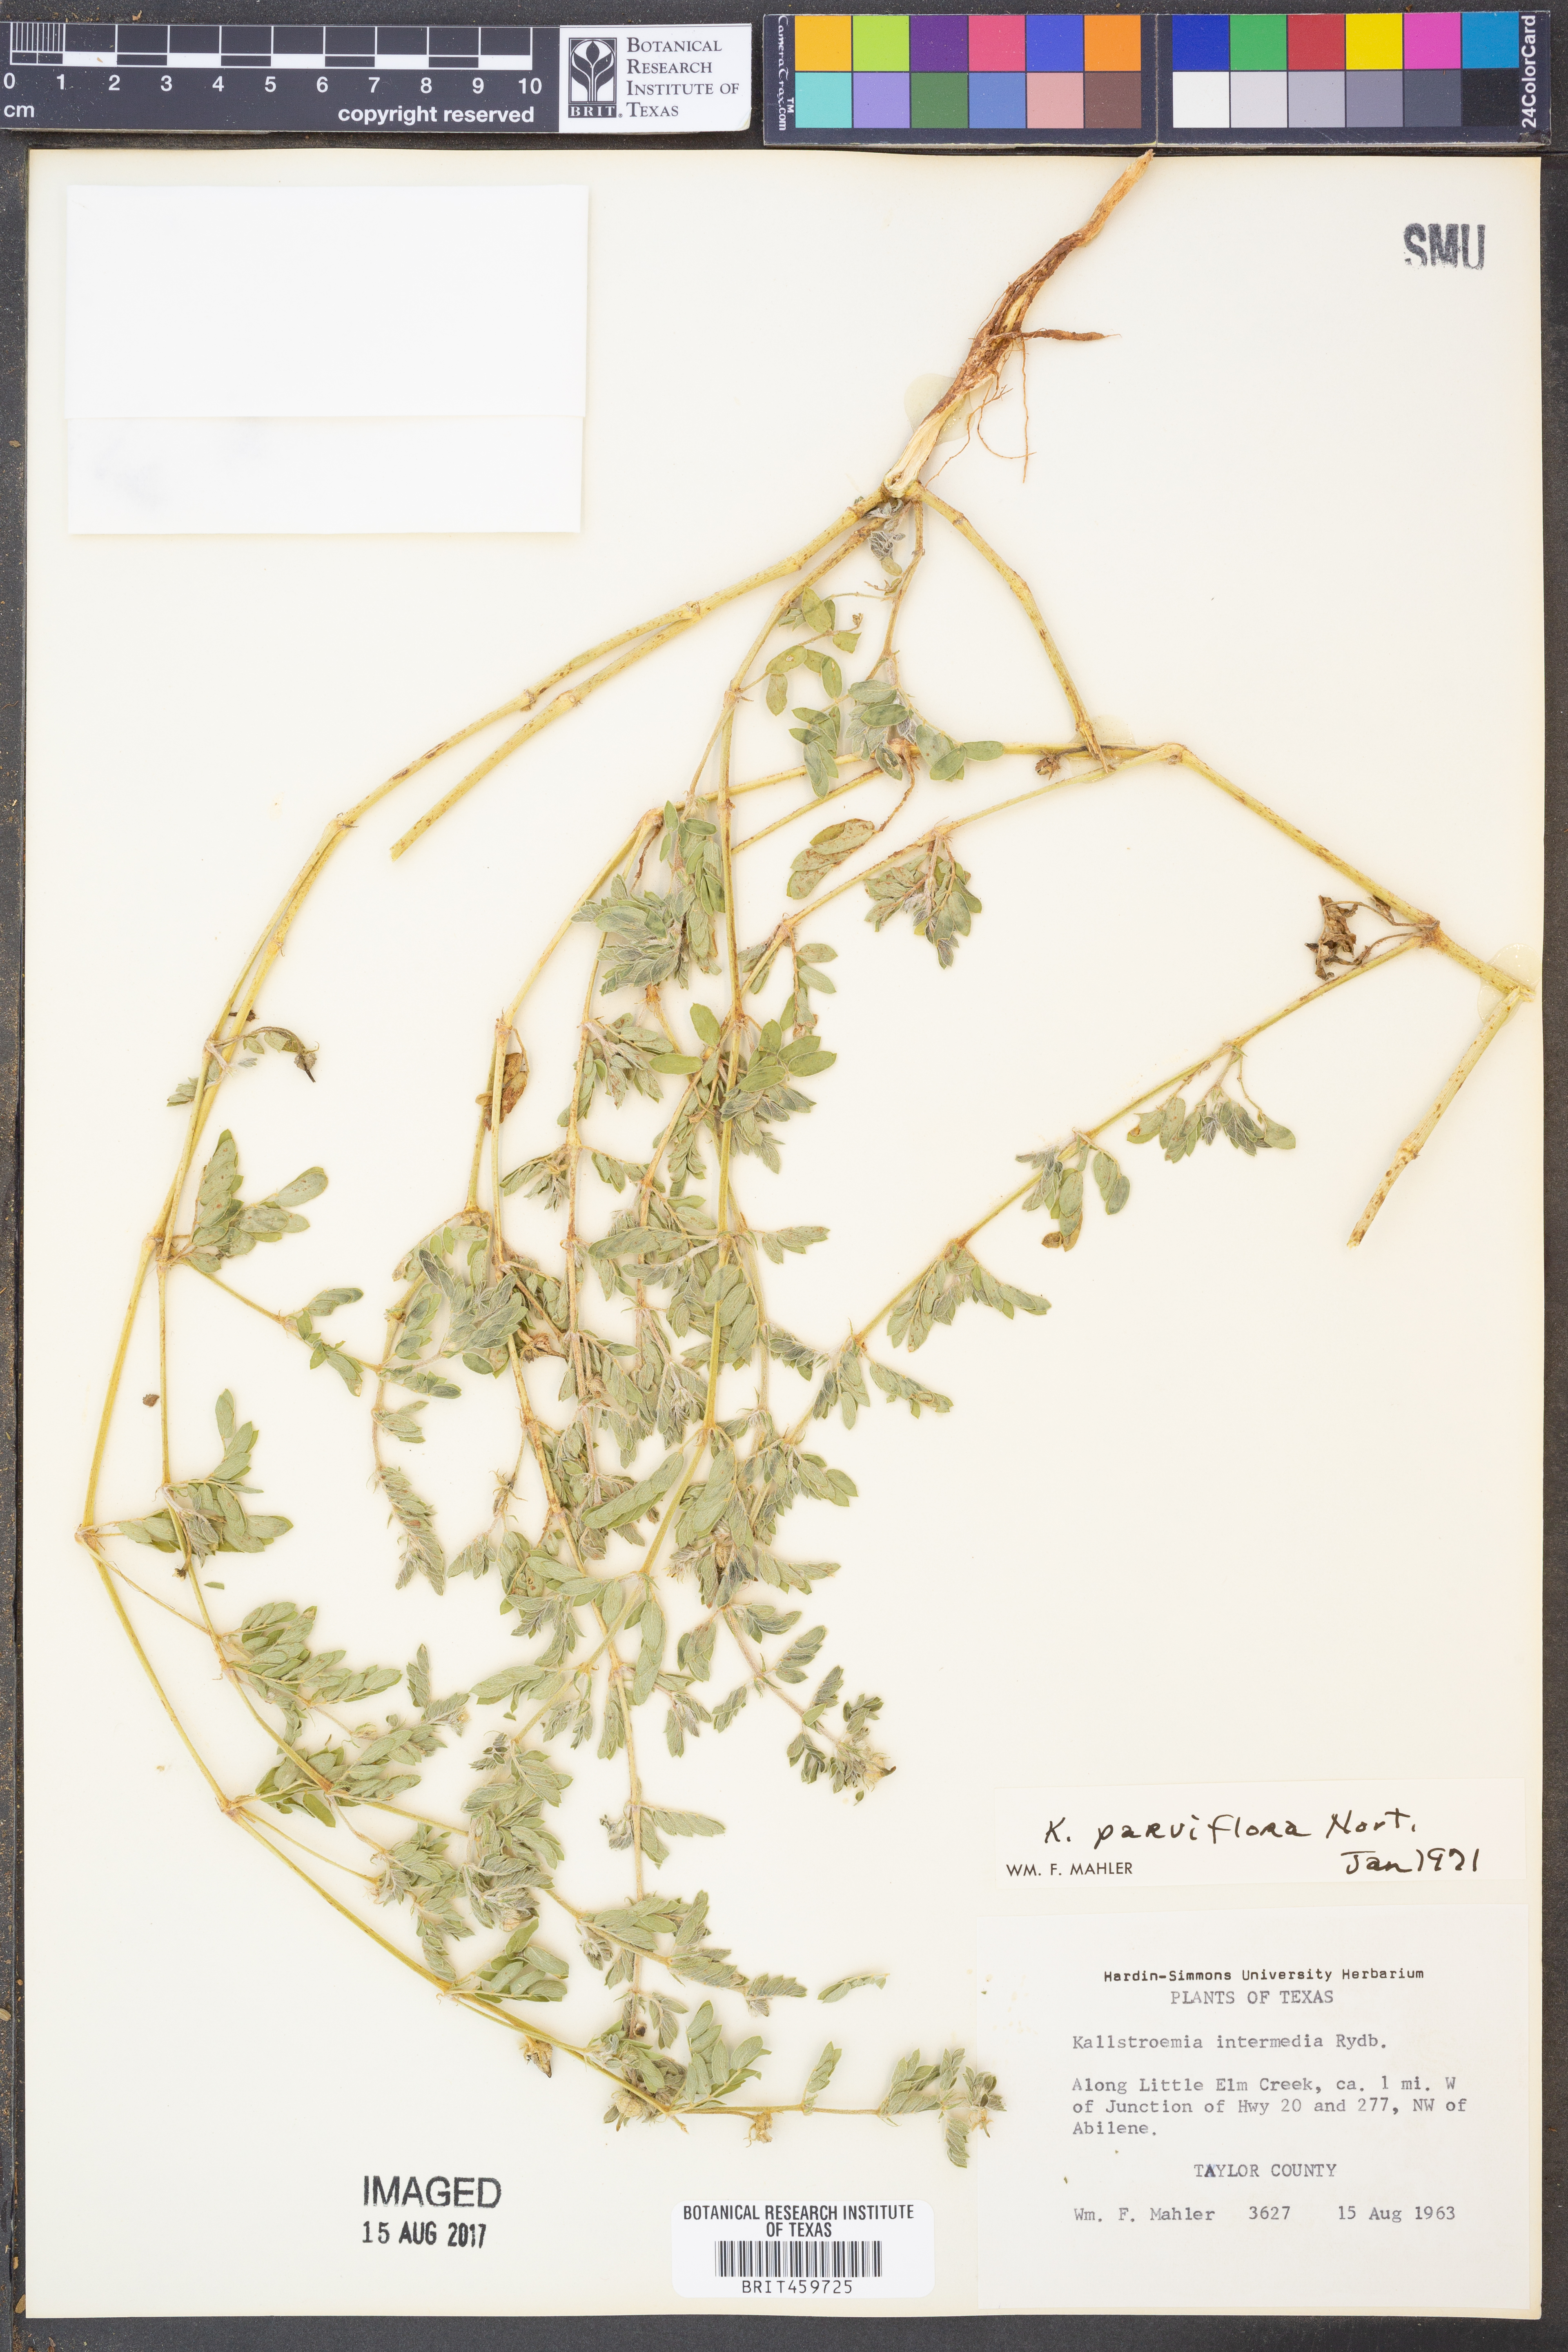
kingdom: Plantae
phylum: Tracheophyta
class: Magnoliopsida
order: Zygophyllales
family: Zygophyllaceae
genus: Kallstroemia
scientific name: Kallstroemia parviflora
